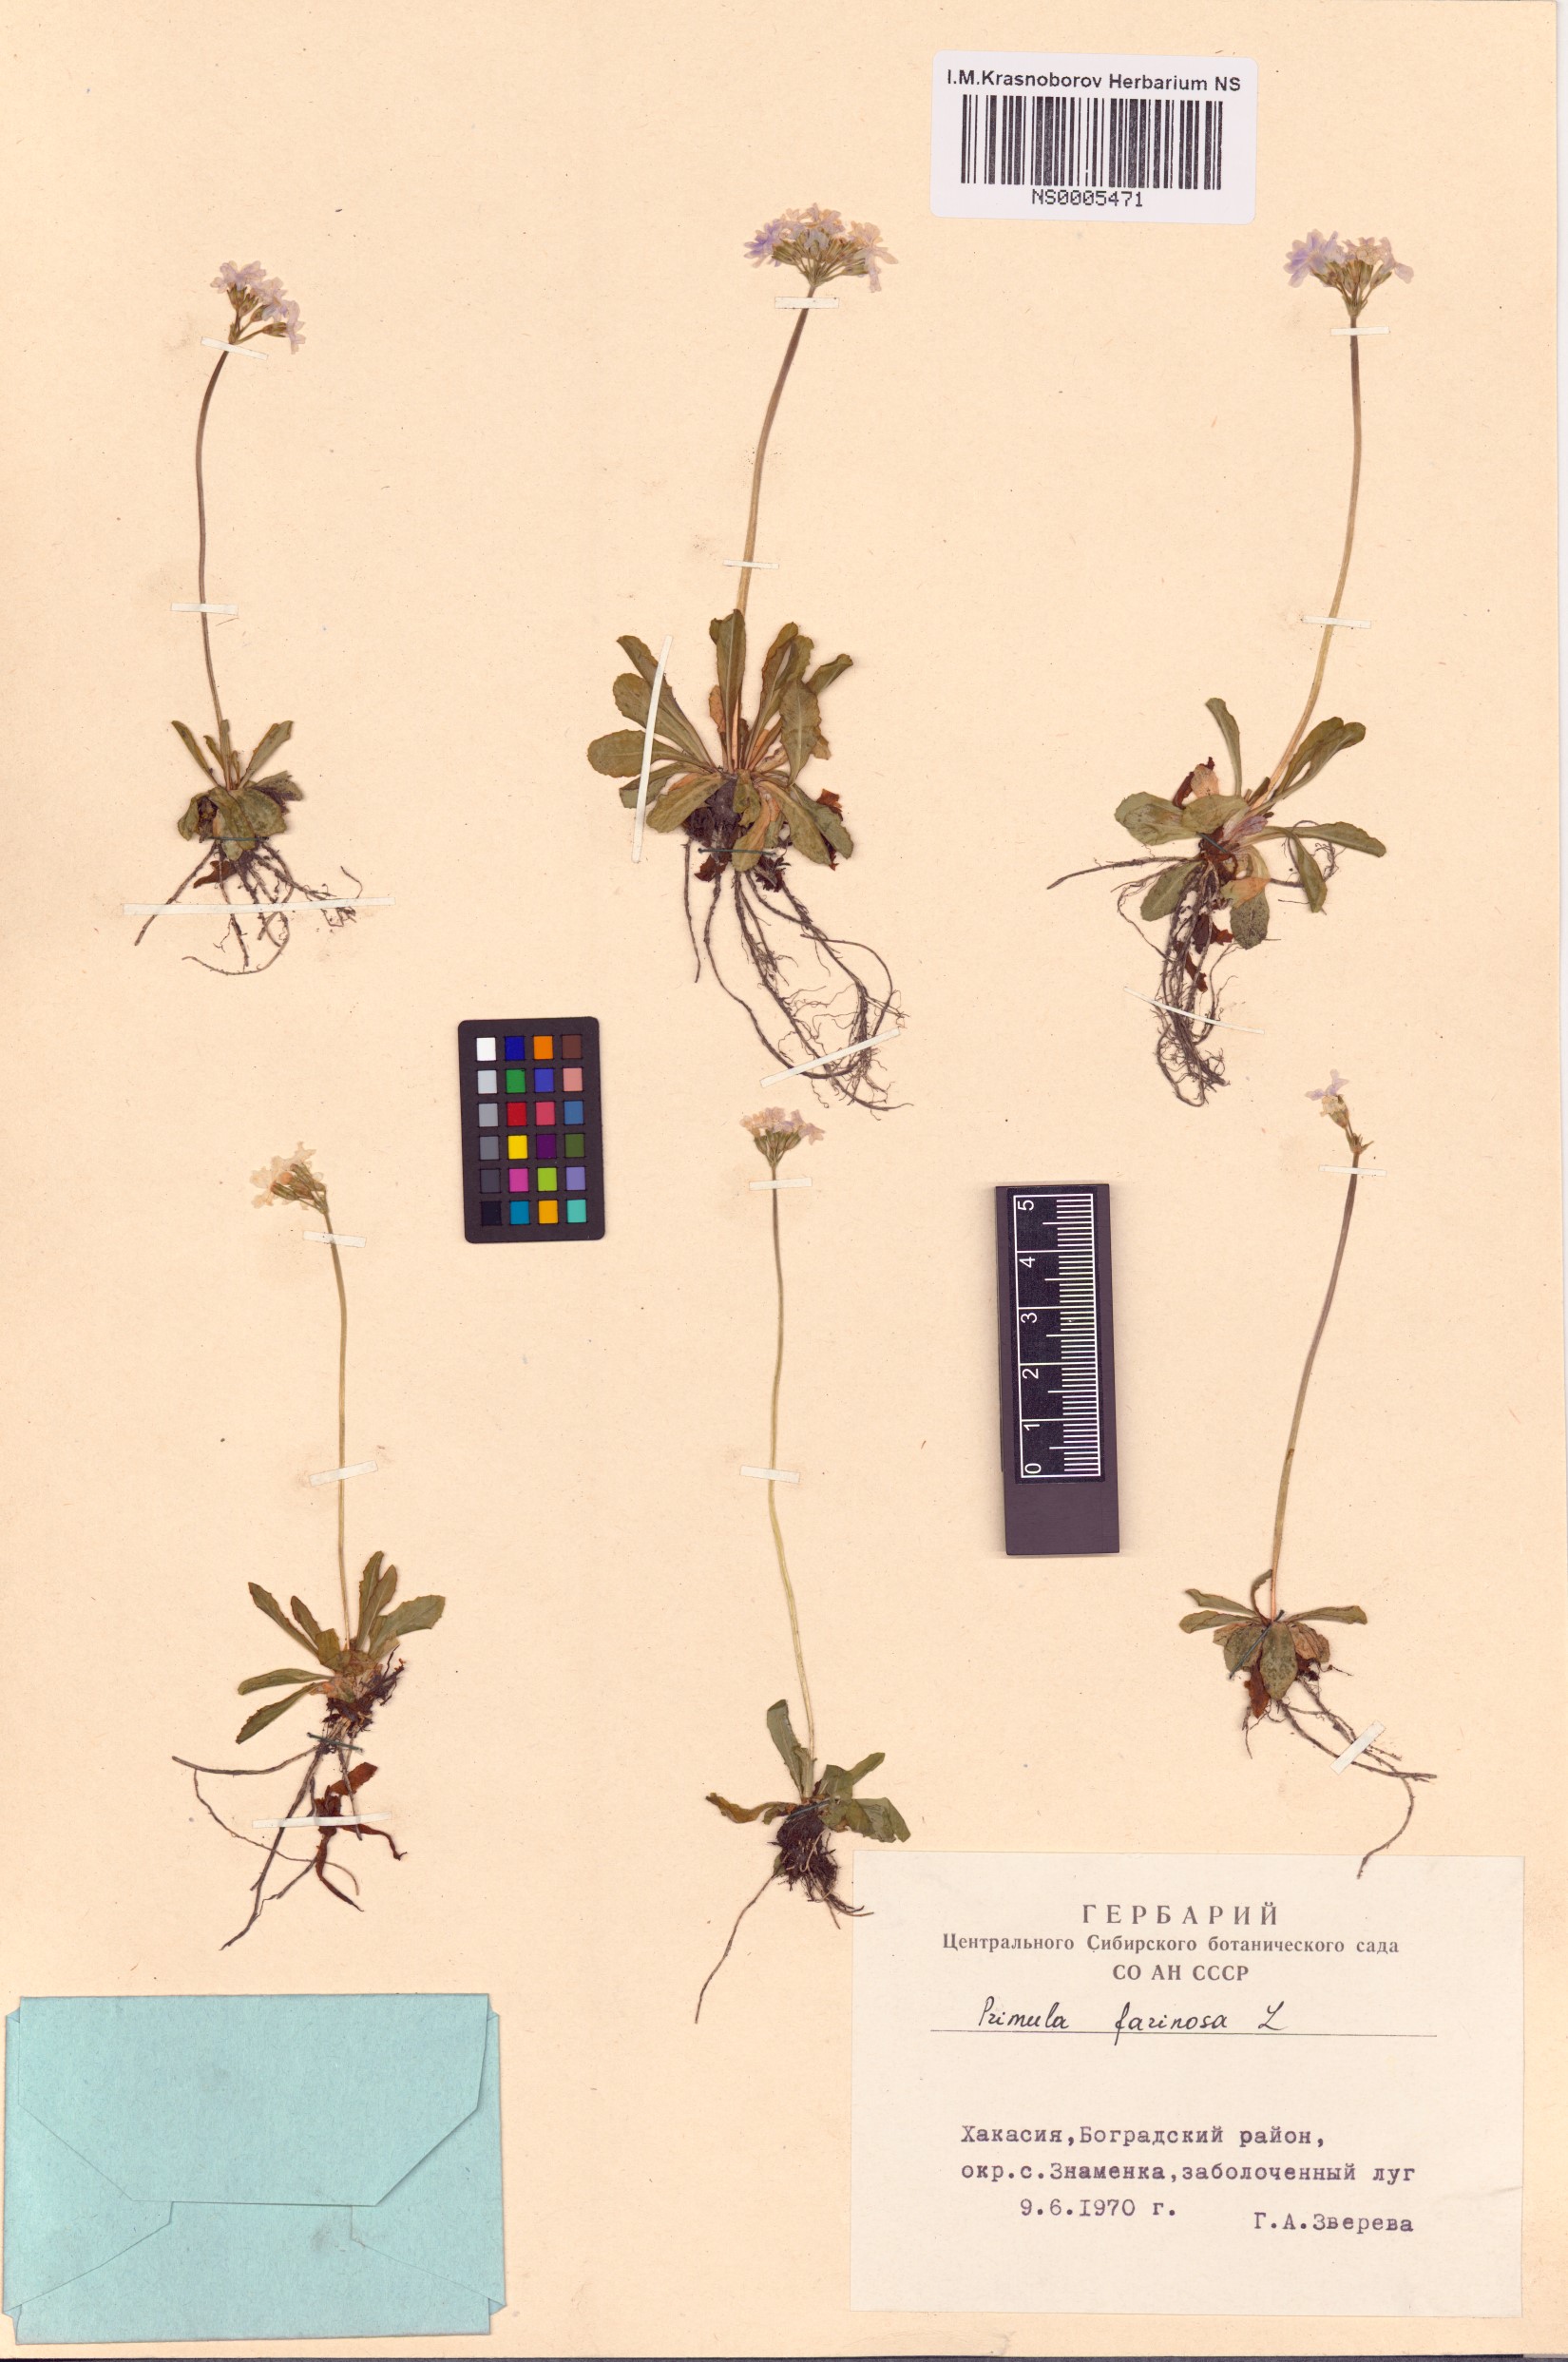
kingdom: Plantae
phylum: Tracheophyta
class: Magnoliopsida
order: Ericales
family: Primulaceae
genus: Primula
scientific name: Primula farinosa
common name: Bird's-eye primrose
